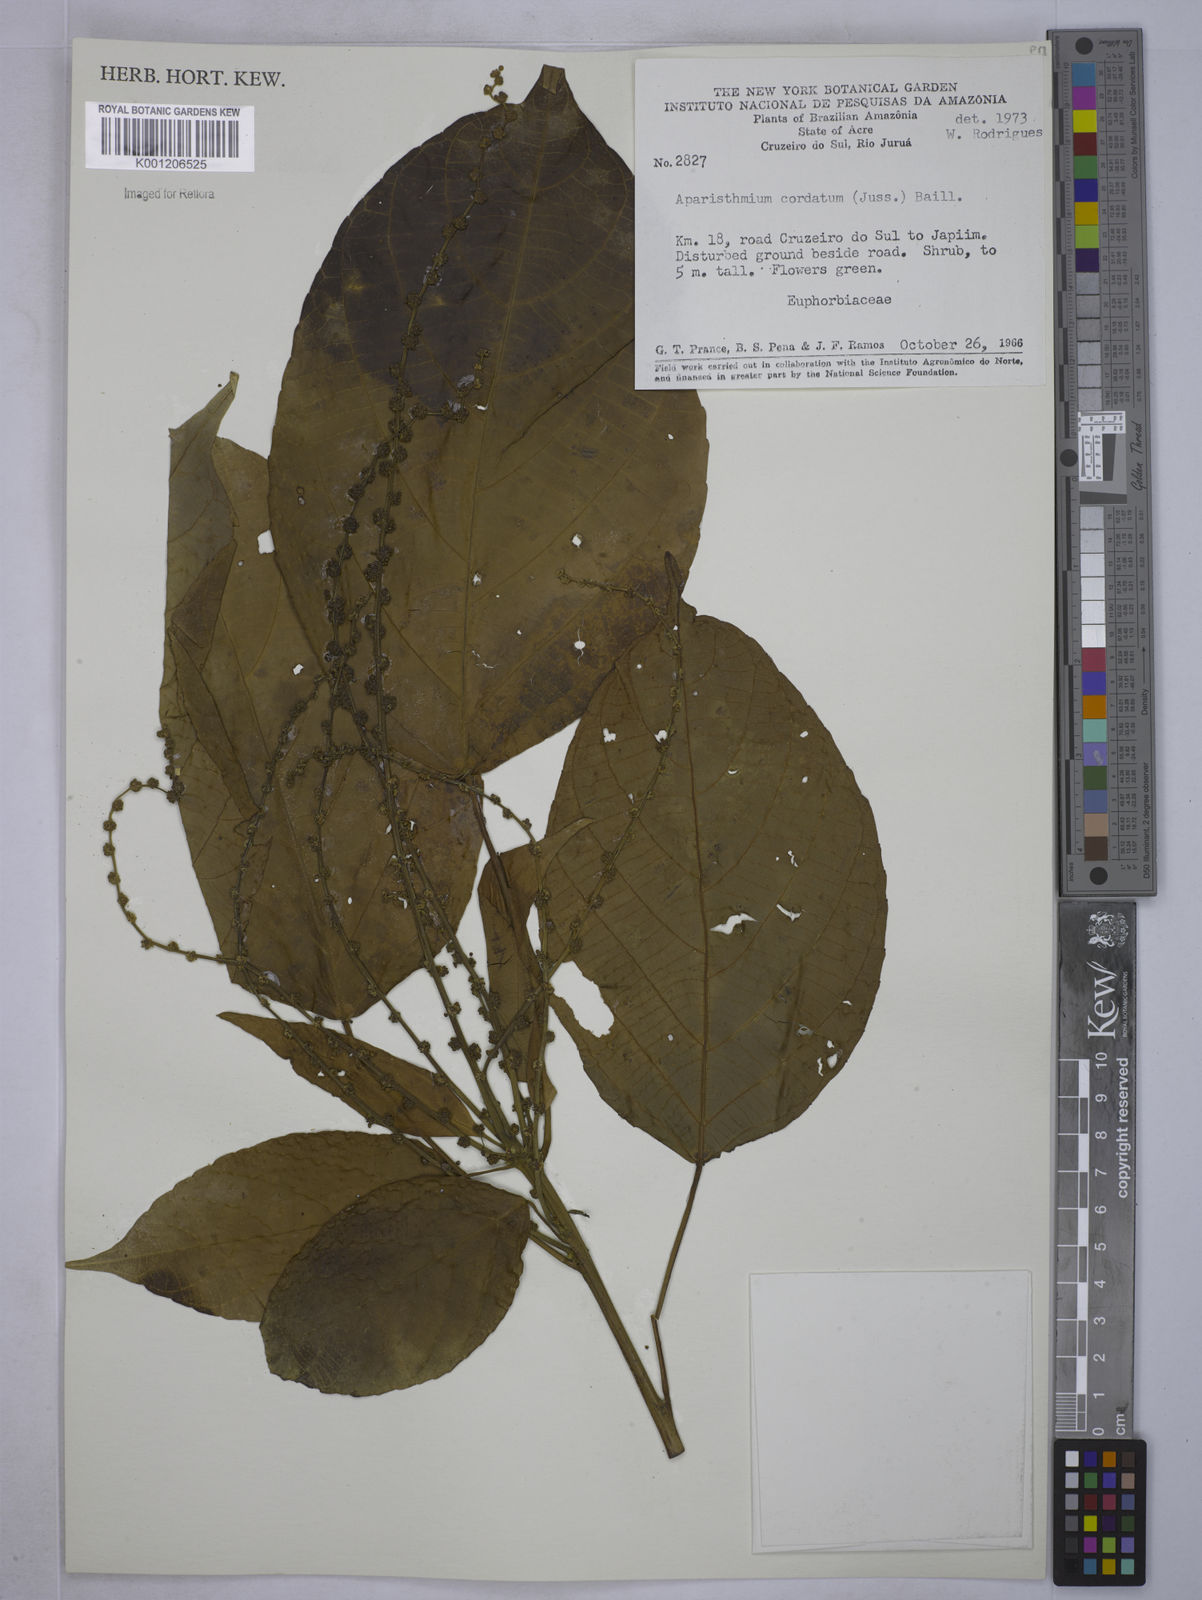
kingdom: Plantae
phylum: Tracheophyta
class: Magnoliopsida
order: Malpighiales
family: Euphorbiaceae
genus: Aparisthmium
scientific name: Aparisthmium cordatum
